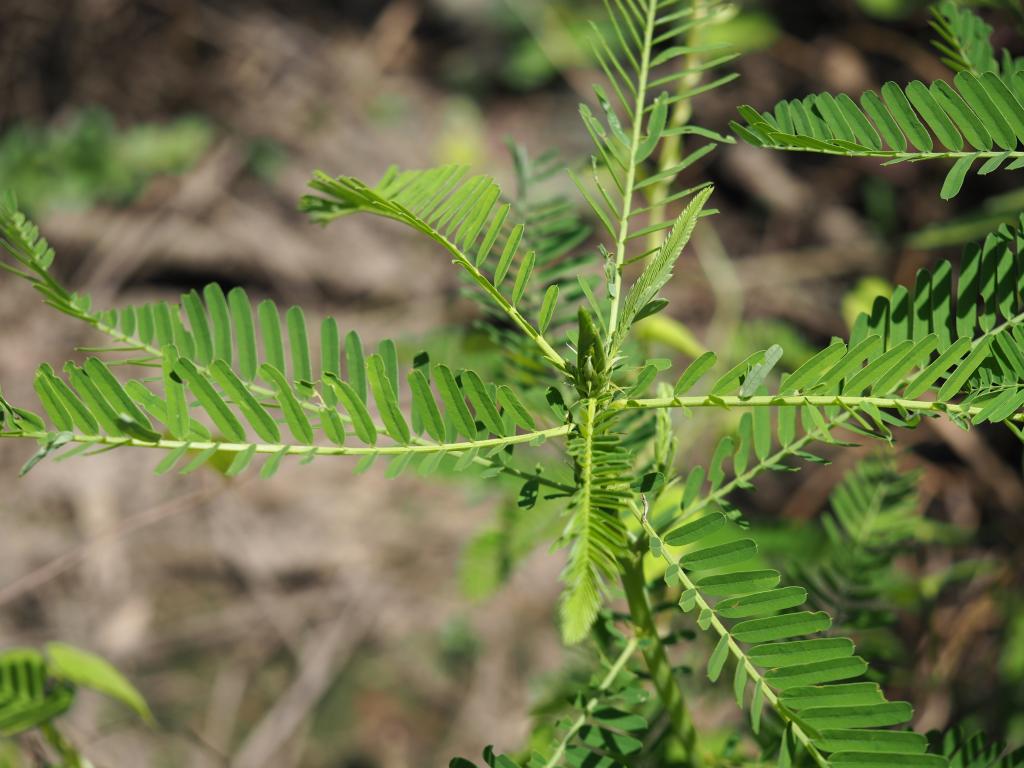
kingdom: Plantae
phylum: Tracheophyta
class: Magnoliopsida
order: Fabales
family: Fabaceae
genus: Sesbania
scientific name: Sesbania cannabina
